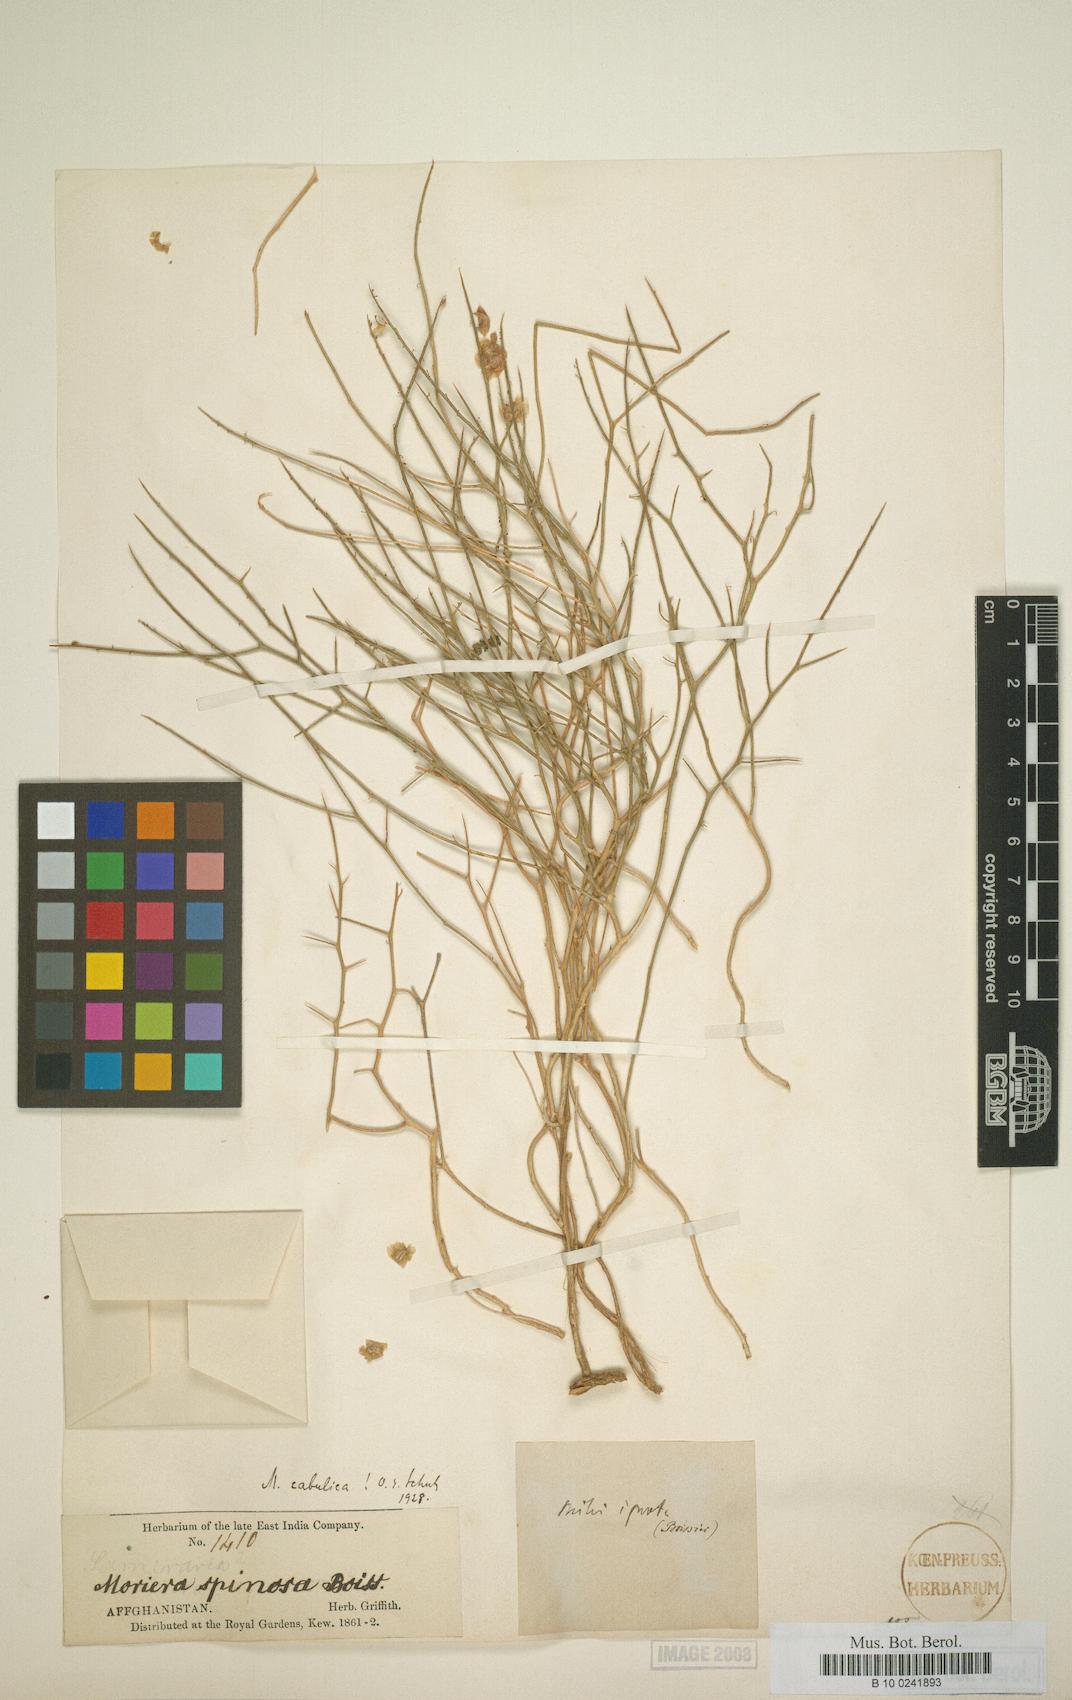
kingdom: Plantae
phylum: Tracheophyta
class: Magnoliopsida
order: Brassicales
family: Brassicaceae
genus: Aethionema
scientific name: Aethionema spinosum
